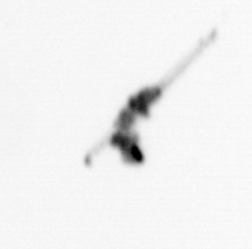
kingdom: Animalia
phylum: Arthropoda
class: Copepoda
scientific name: Copepoda
